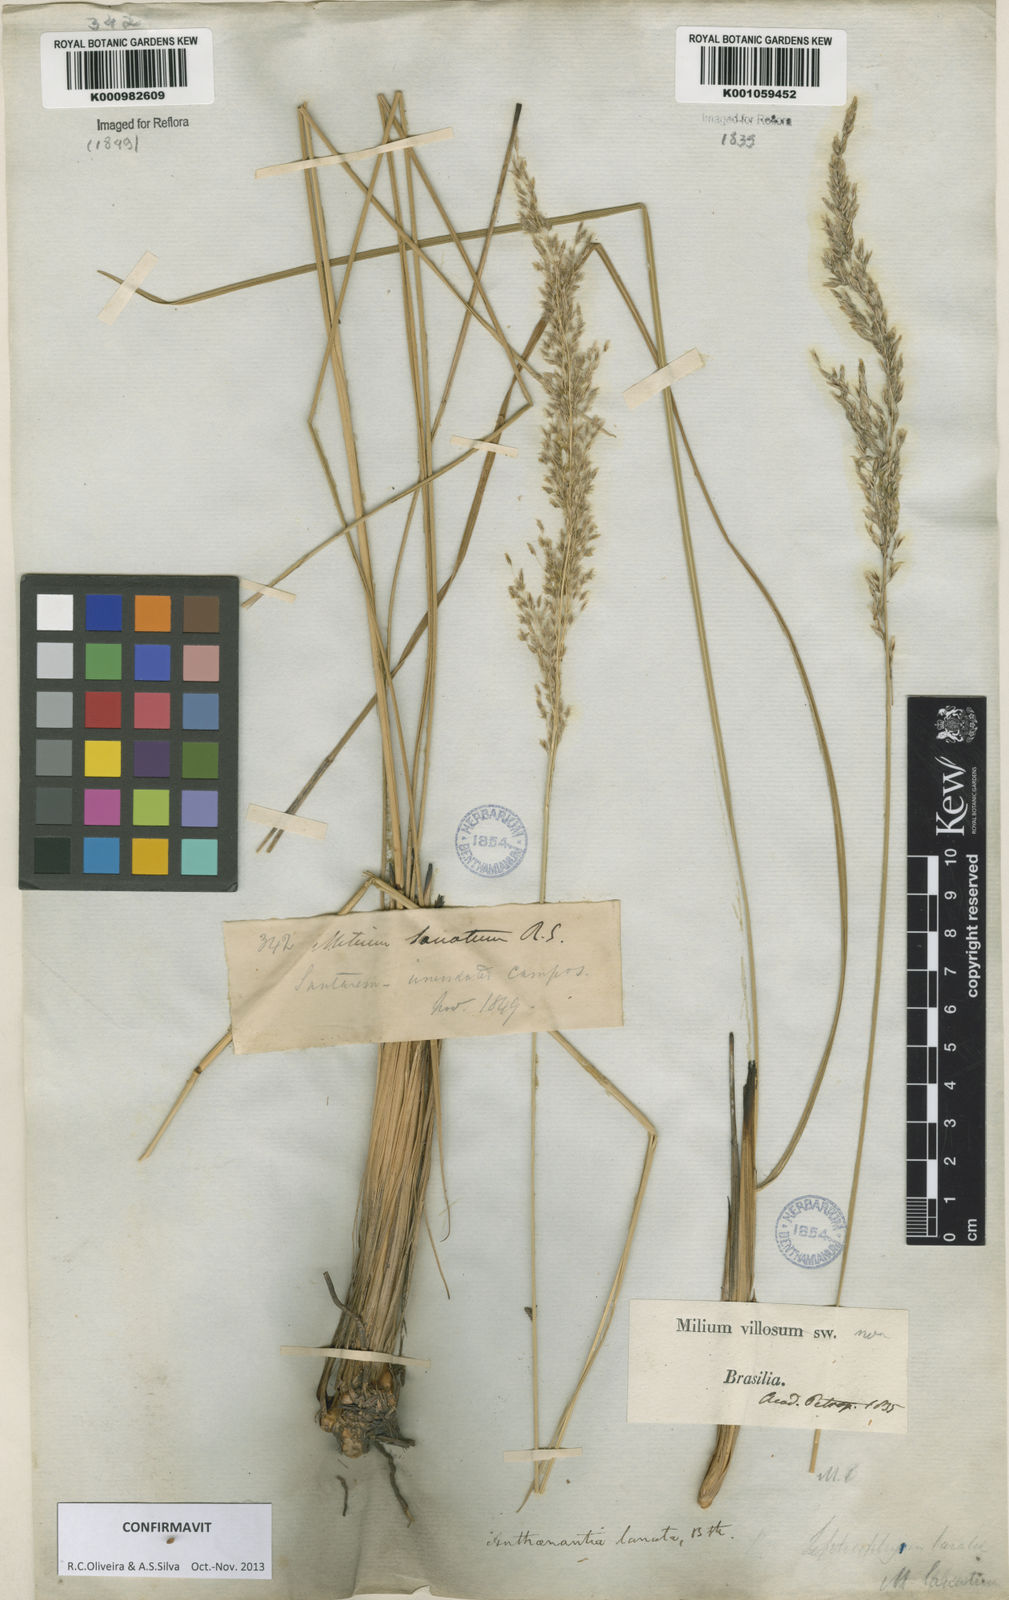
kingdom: Plantae
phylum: Tracheophyta
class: Liliopsida
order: Poales
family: Poaceae
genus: Anthenantia
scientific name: Anthenantia lanata
